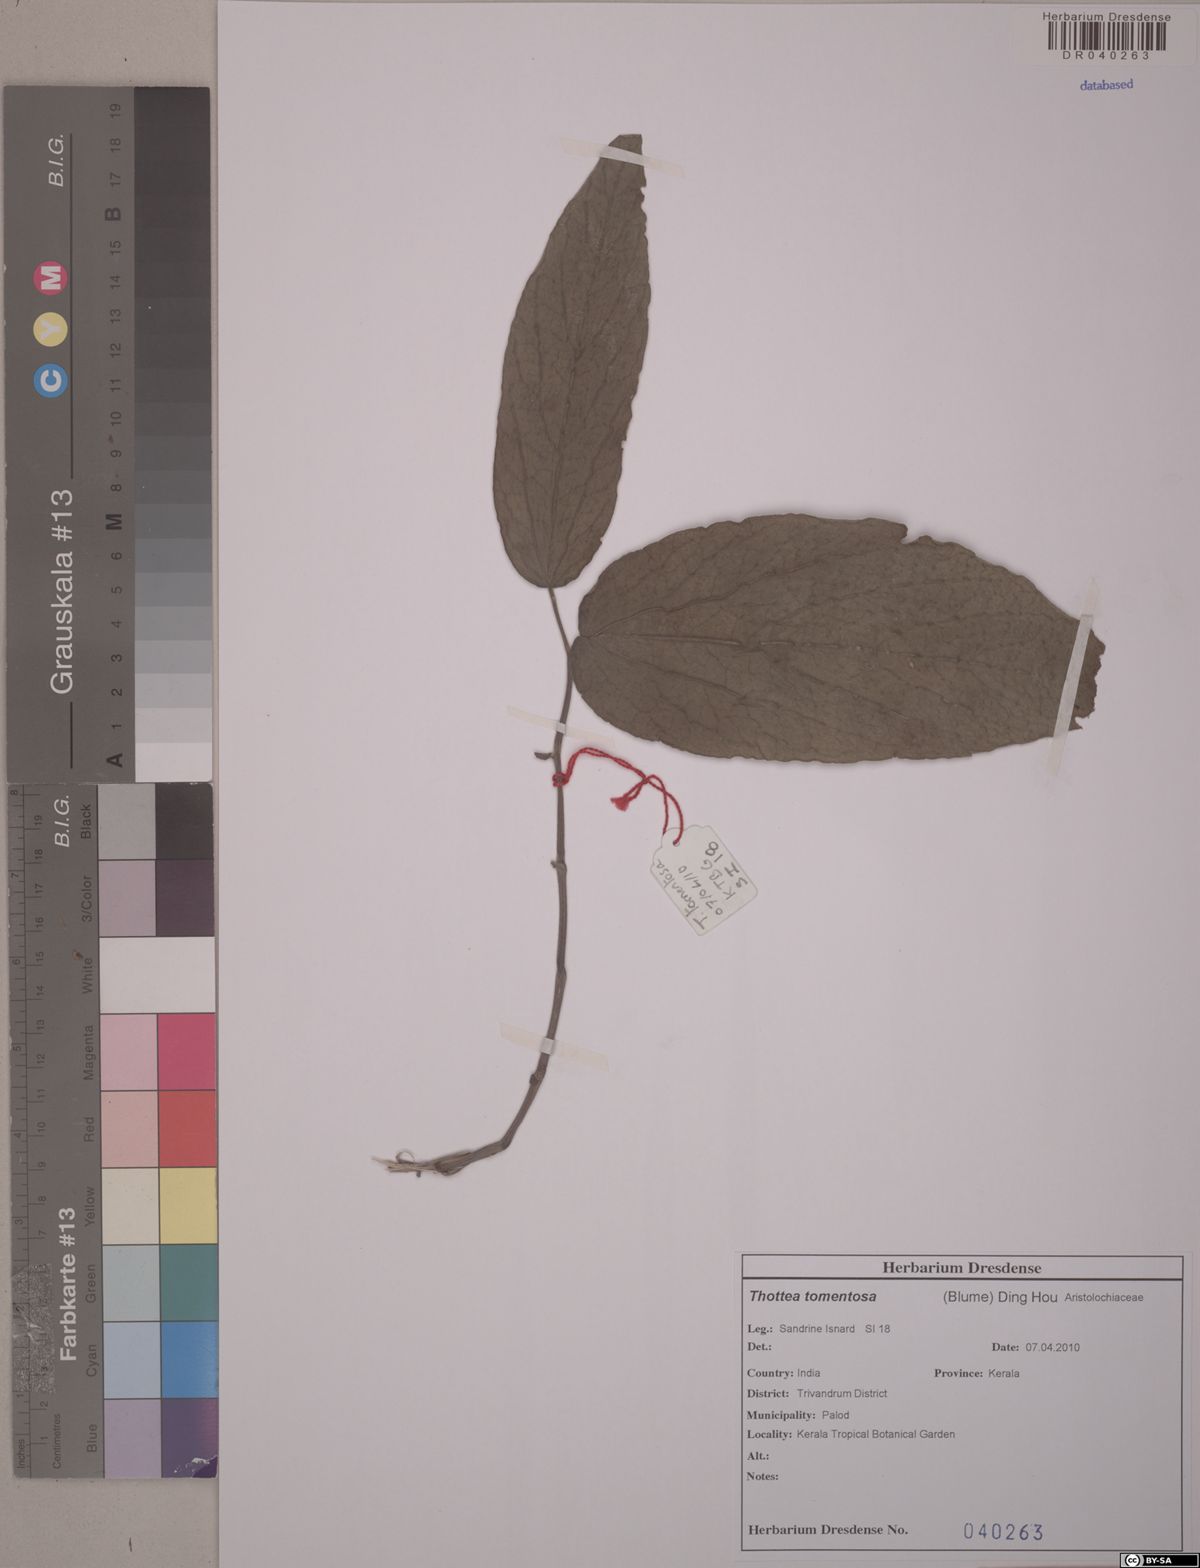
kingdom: Plantae
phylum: Tracheophyta
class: Magnoliopsida
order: Piperales
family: Aristolochiaceae
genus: Thottea
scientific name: Thottea tomentosa
